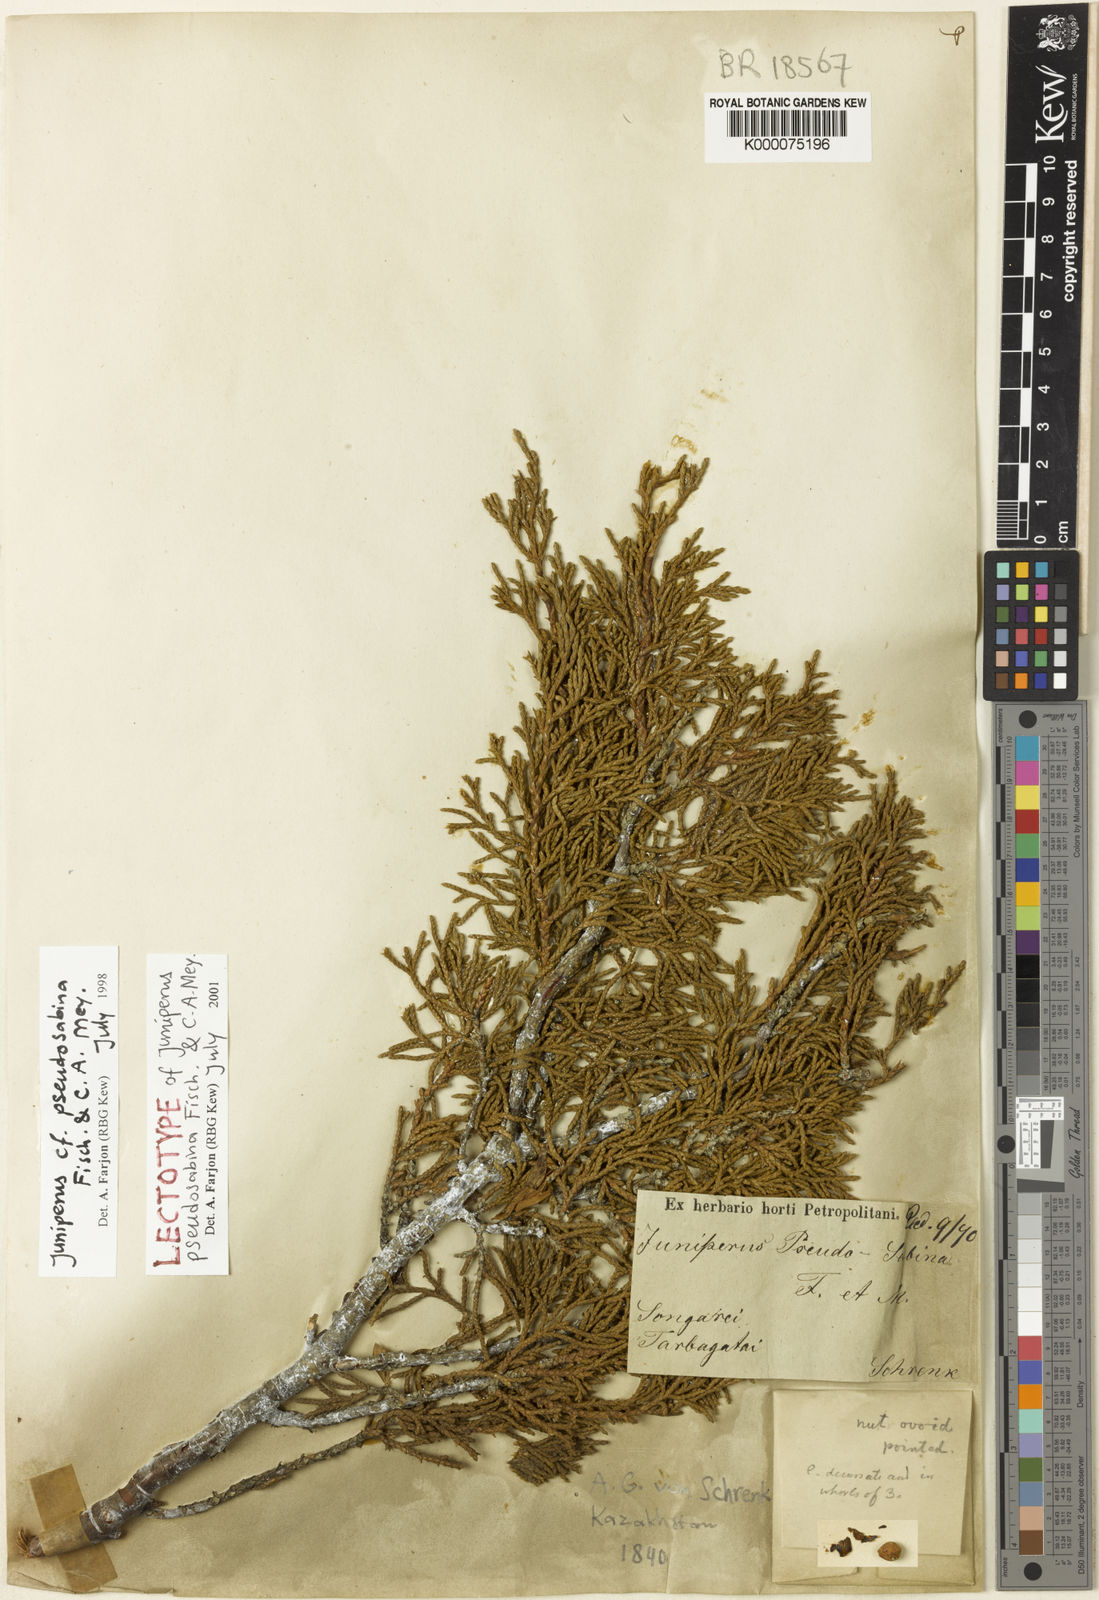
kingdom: Plantae
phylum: Tracheophyta
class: Pinopsida
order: Pinales
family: Cupressaceae
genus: Juniperus
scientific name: Juniperus pseudosabina
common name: Turkestan juniper
